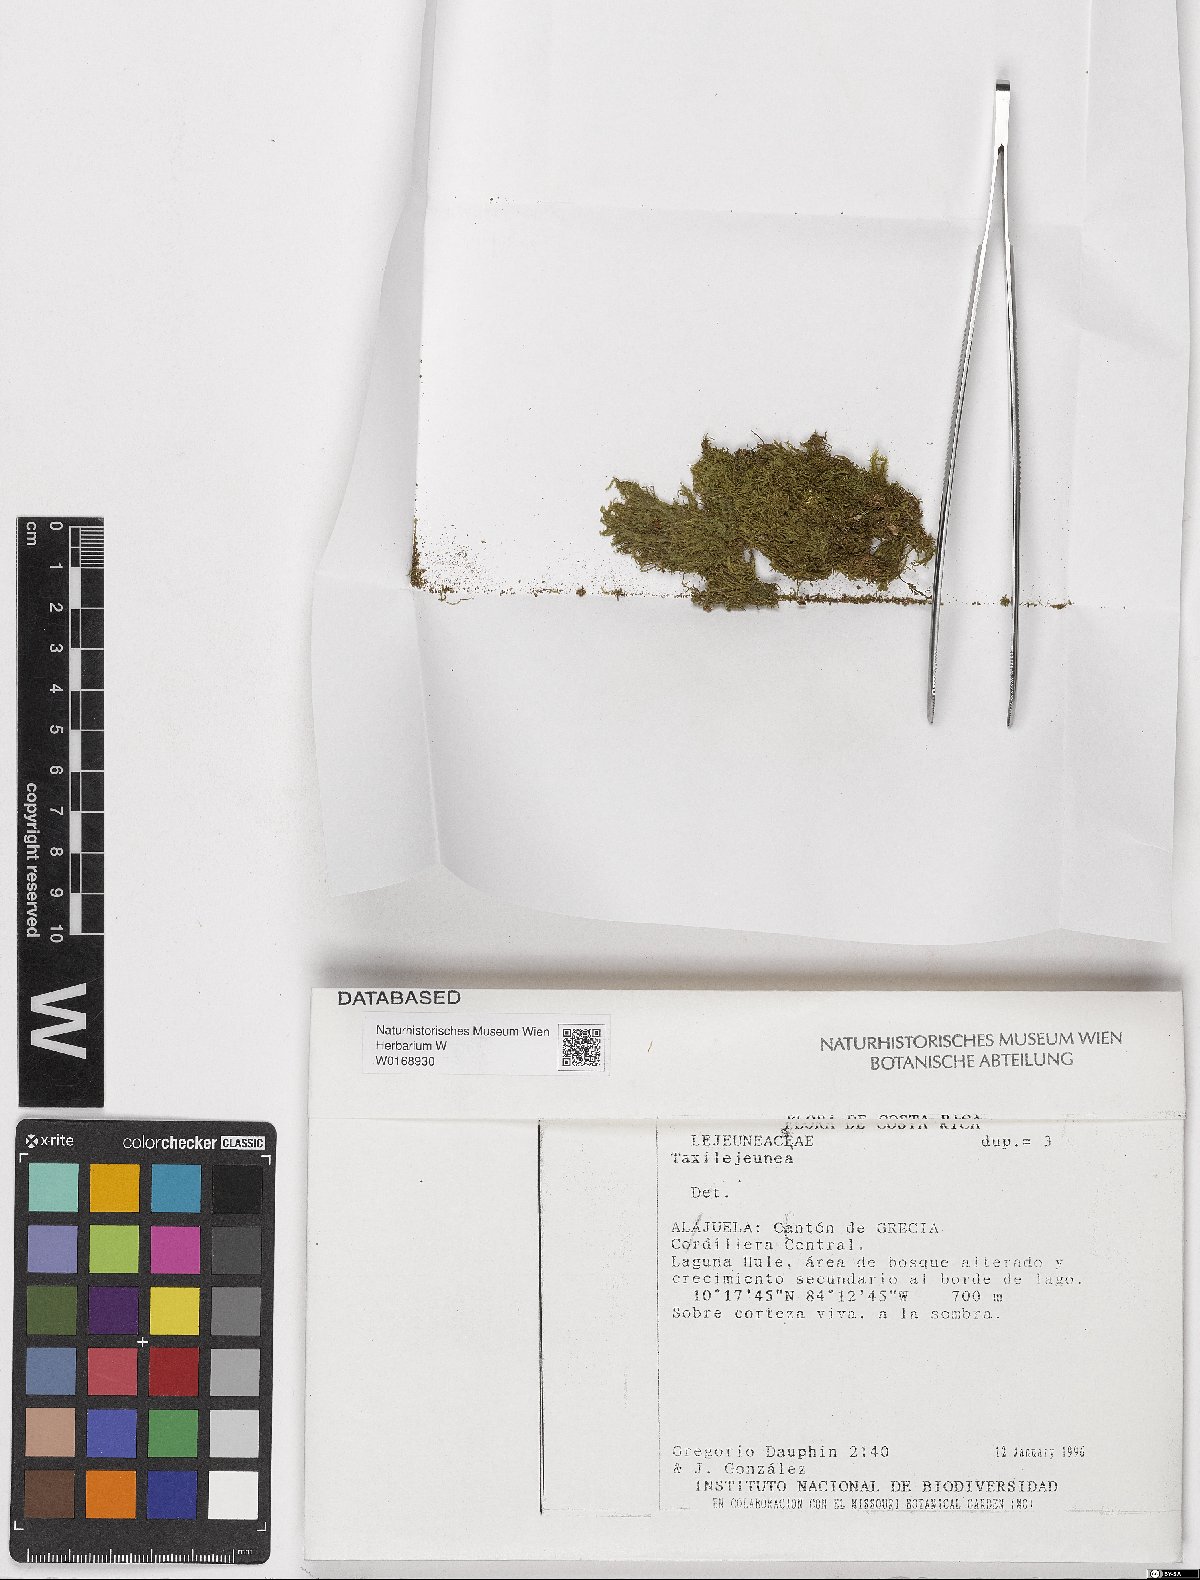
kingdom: Plantae
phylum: Marchantiophyta
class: Jungermanniopsida
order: Porellales
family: Lejeuneaceae
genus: Taxilejeunea
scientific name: Taxilejeunea
